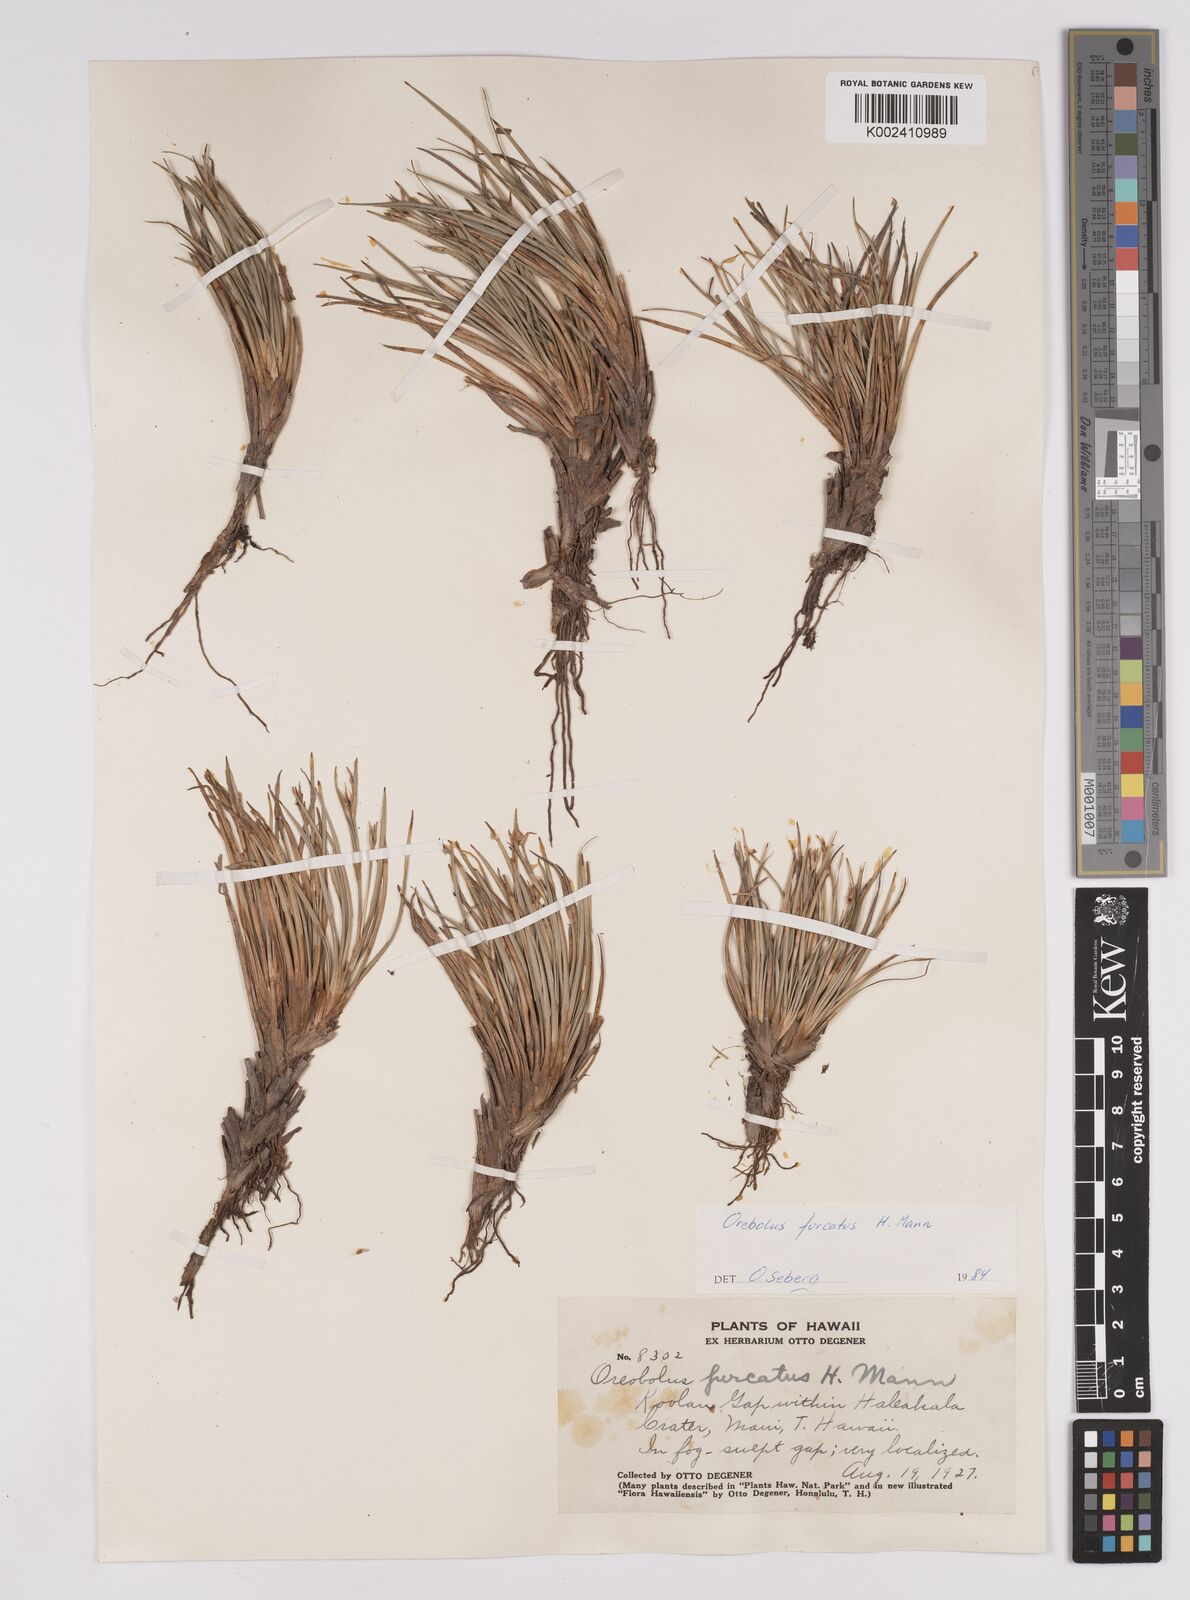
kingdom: Plantae
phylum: Tracheophyta
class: Liliopsida
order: Poales
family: Cyperaceae
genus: Oreobolus
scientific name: Oreobolus furcatus
